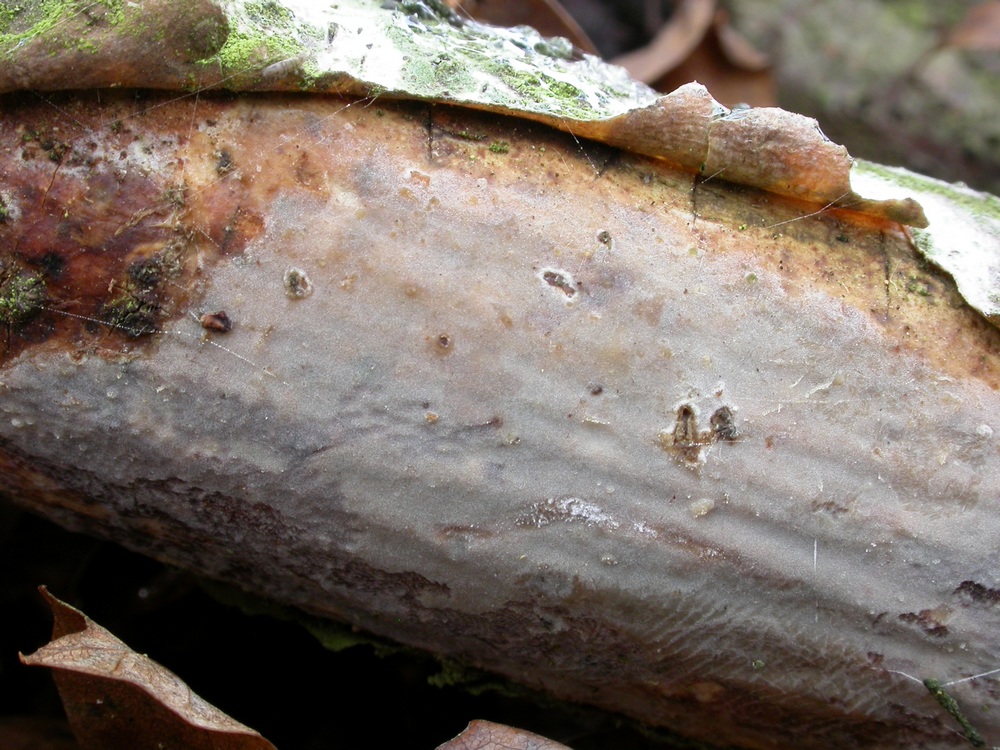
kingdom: Fungi
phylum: Basidiomycota
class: Agaricomycetes
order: Corticiales
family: Vuilleminiaceae
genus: Vuilleminia
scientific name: Vuilleminia comedens
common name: almindelig barksprænger
